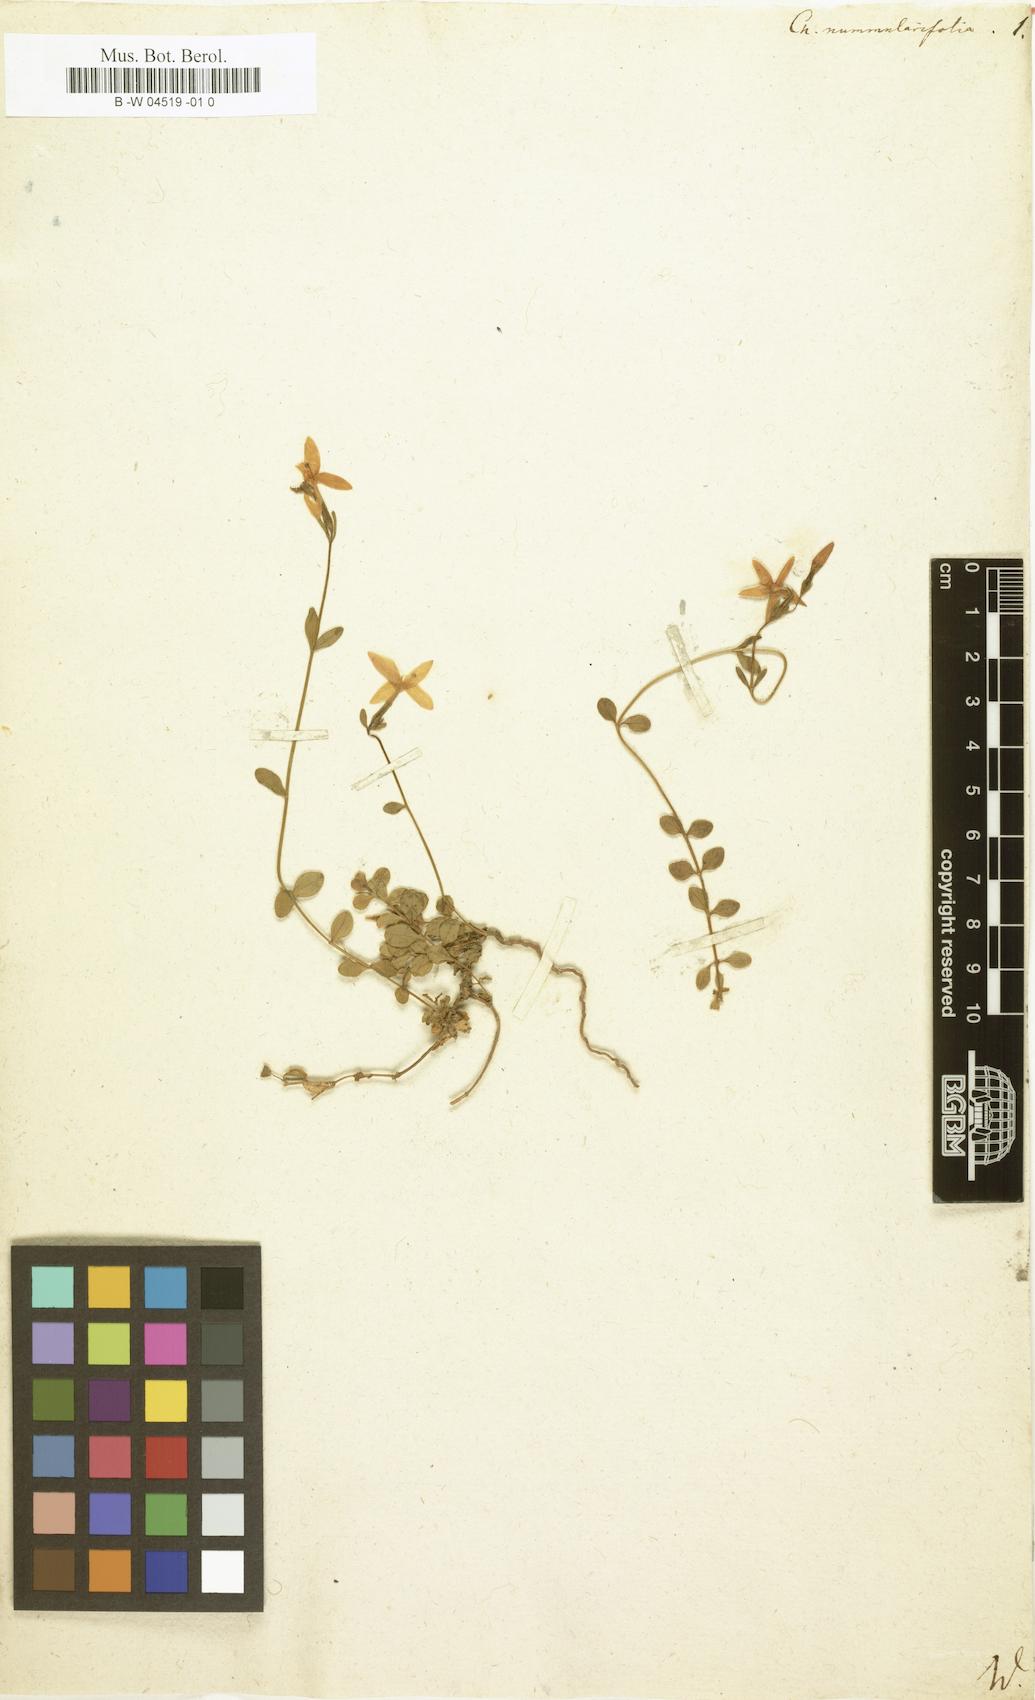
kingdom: Plantae
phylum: Tracheophyta
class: Magnoliopsida
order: Gentianales
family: Gentianaceae
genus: Centaurium
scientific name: Centaurium scilloides
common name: Perennial centaury
